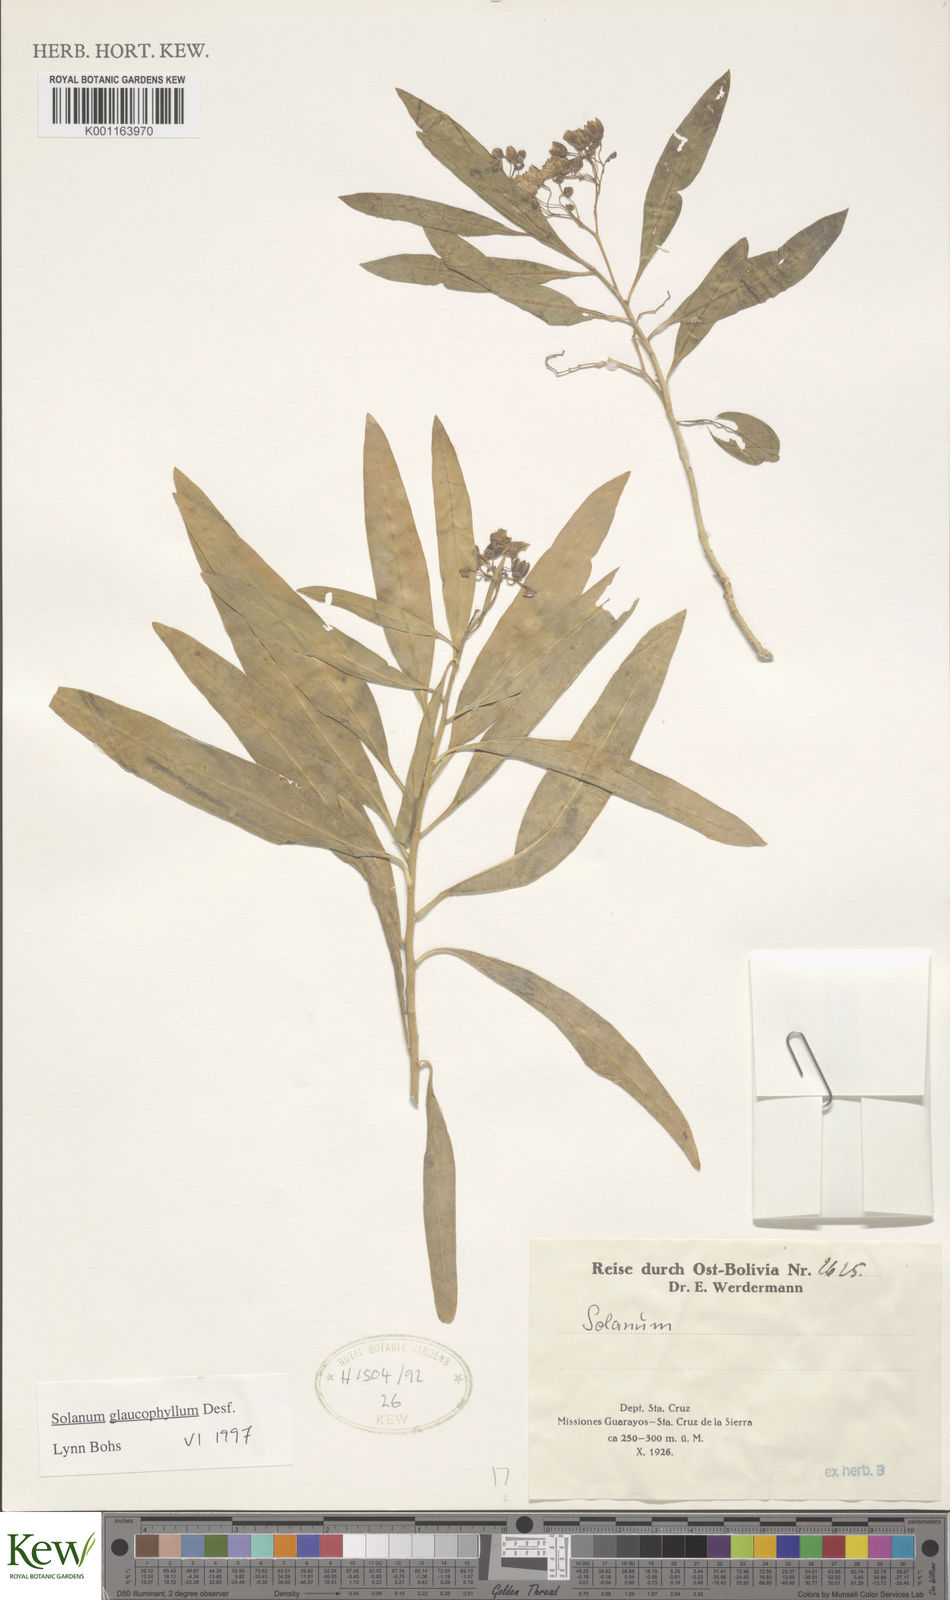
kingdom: Plantae
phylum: Tracheophyta
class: Magnoliopsida
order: Solanales
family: Solanaceae
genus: Solanum
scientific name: Solanum glaucophyllum
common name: Waxyleaf nightshade
